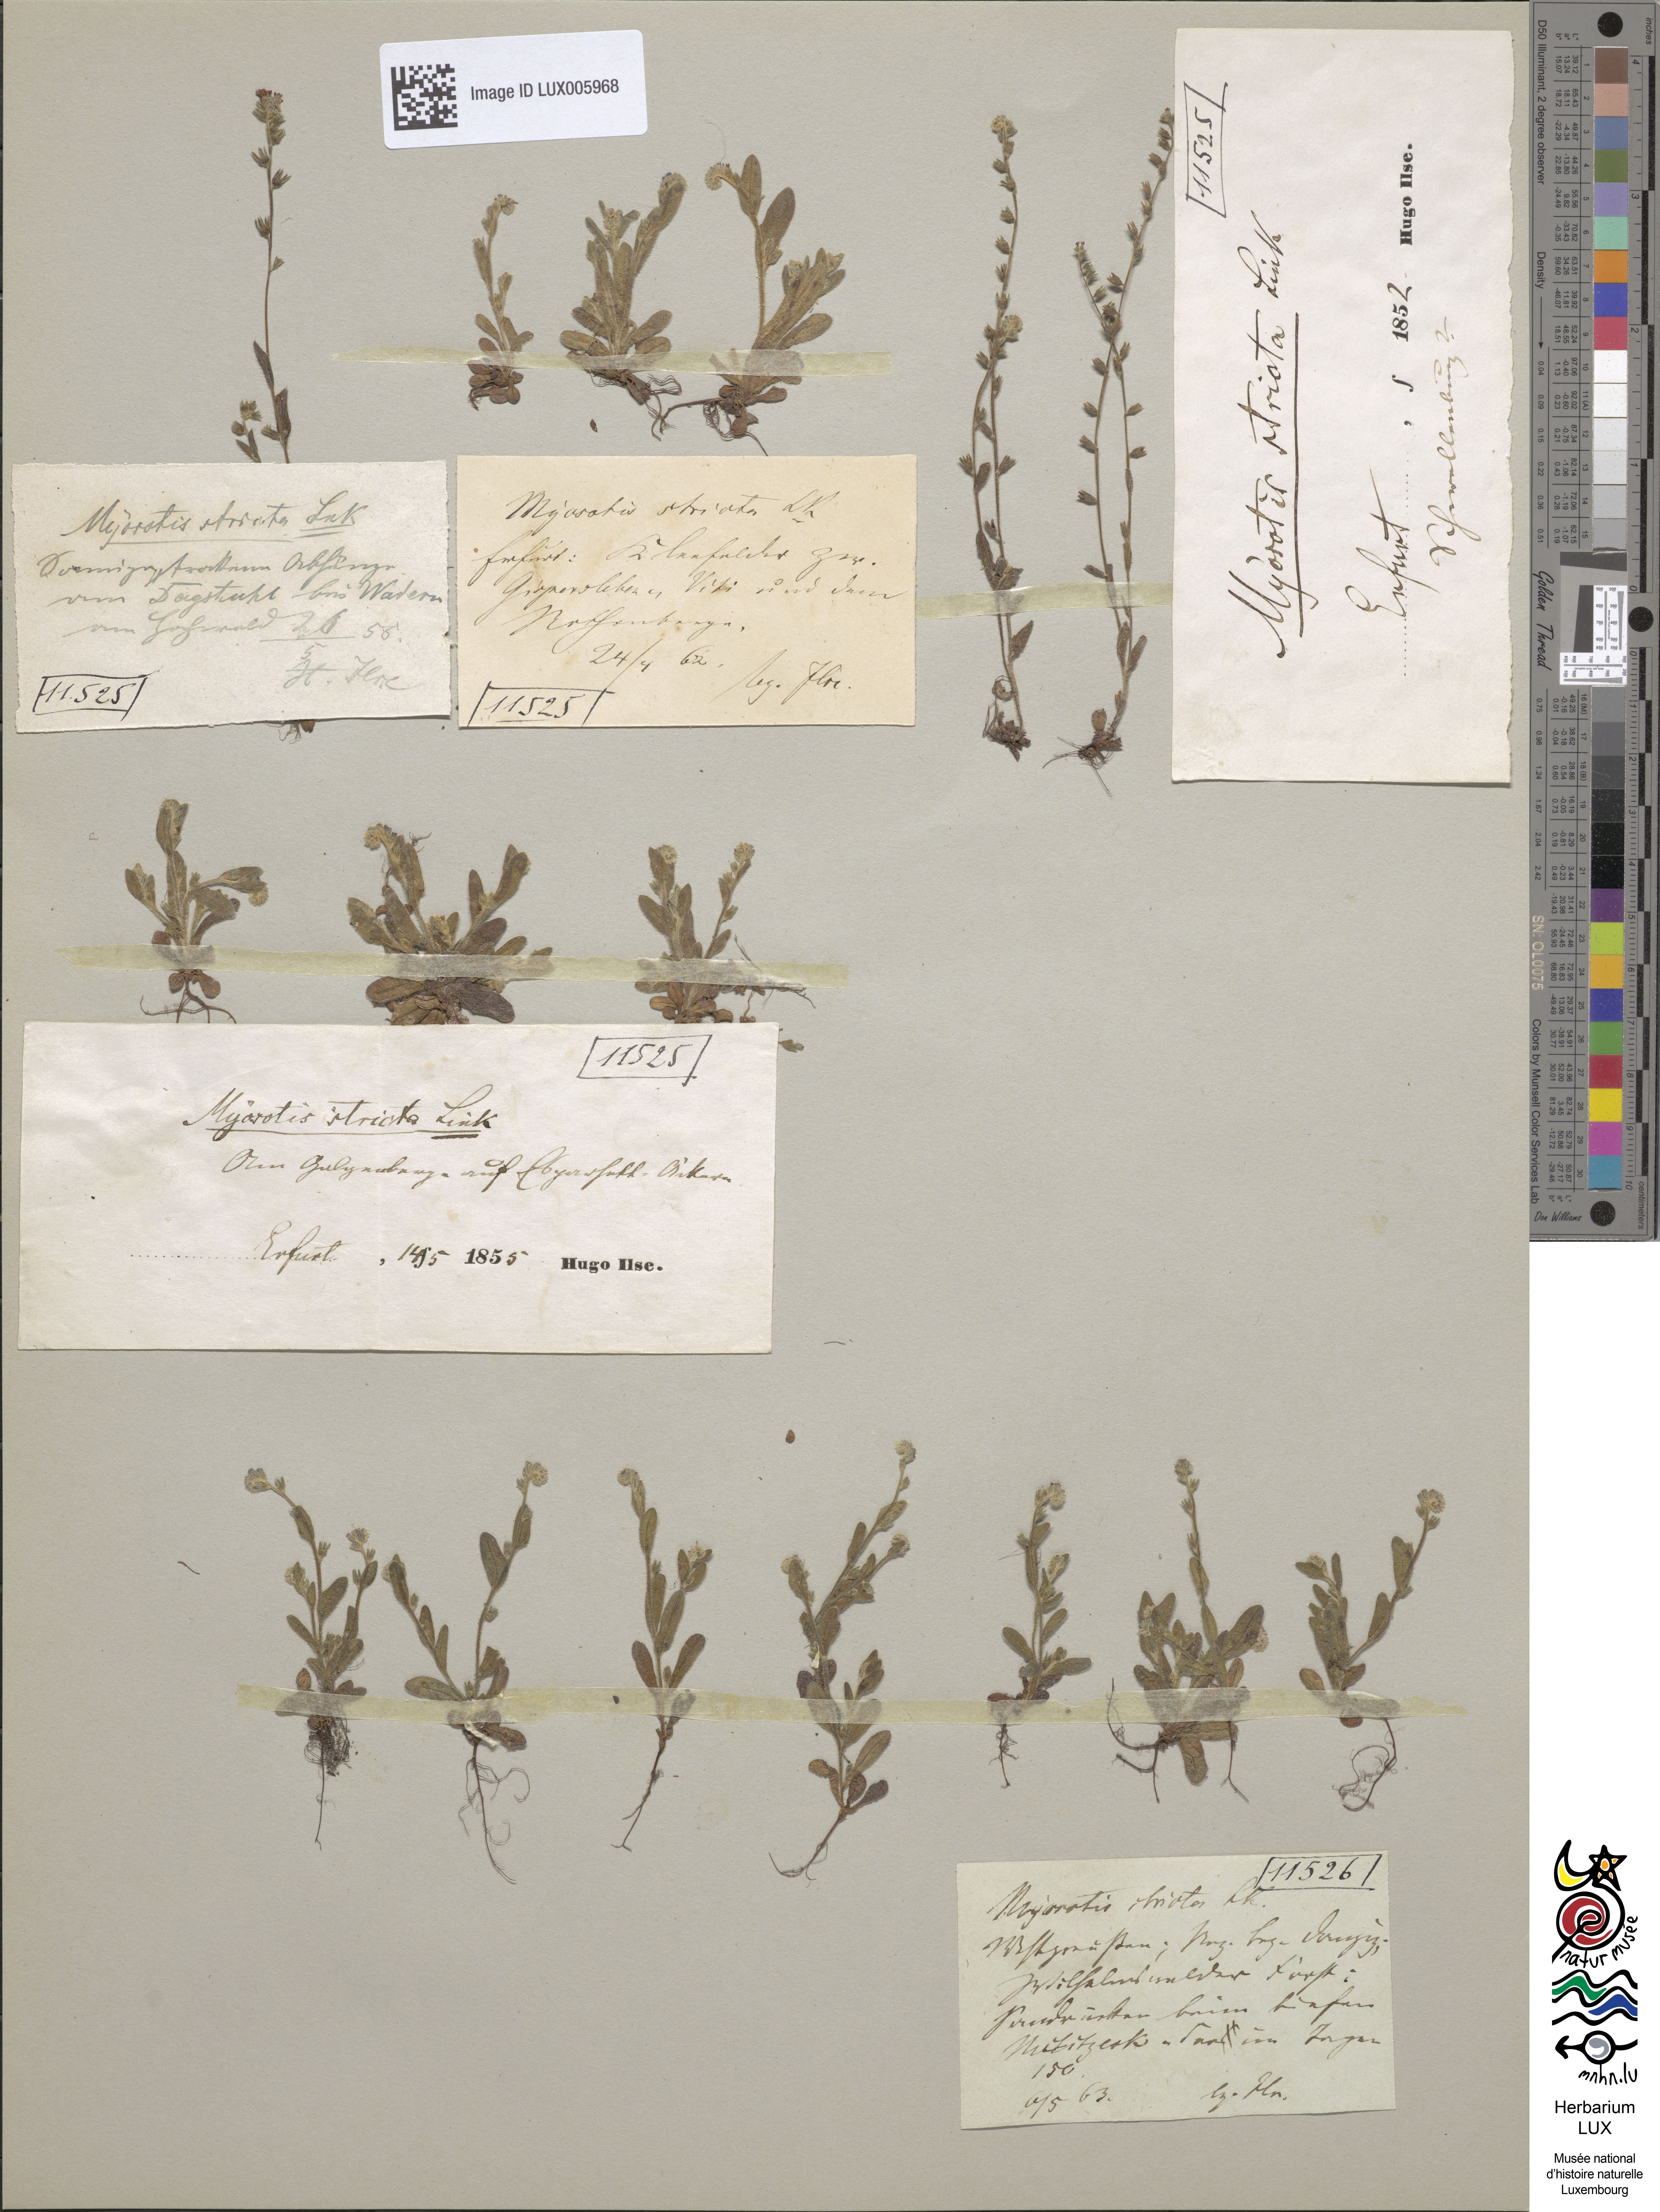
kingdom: Plantae
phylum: Tracheophyta
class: Magnoliopsida
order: Boraginales
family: Boraginaceae
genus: Myosotis
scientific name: Myosotis stricta
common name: Strict forget-me-not
